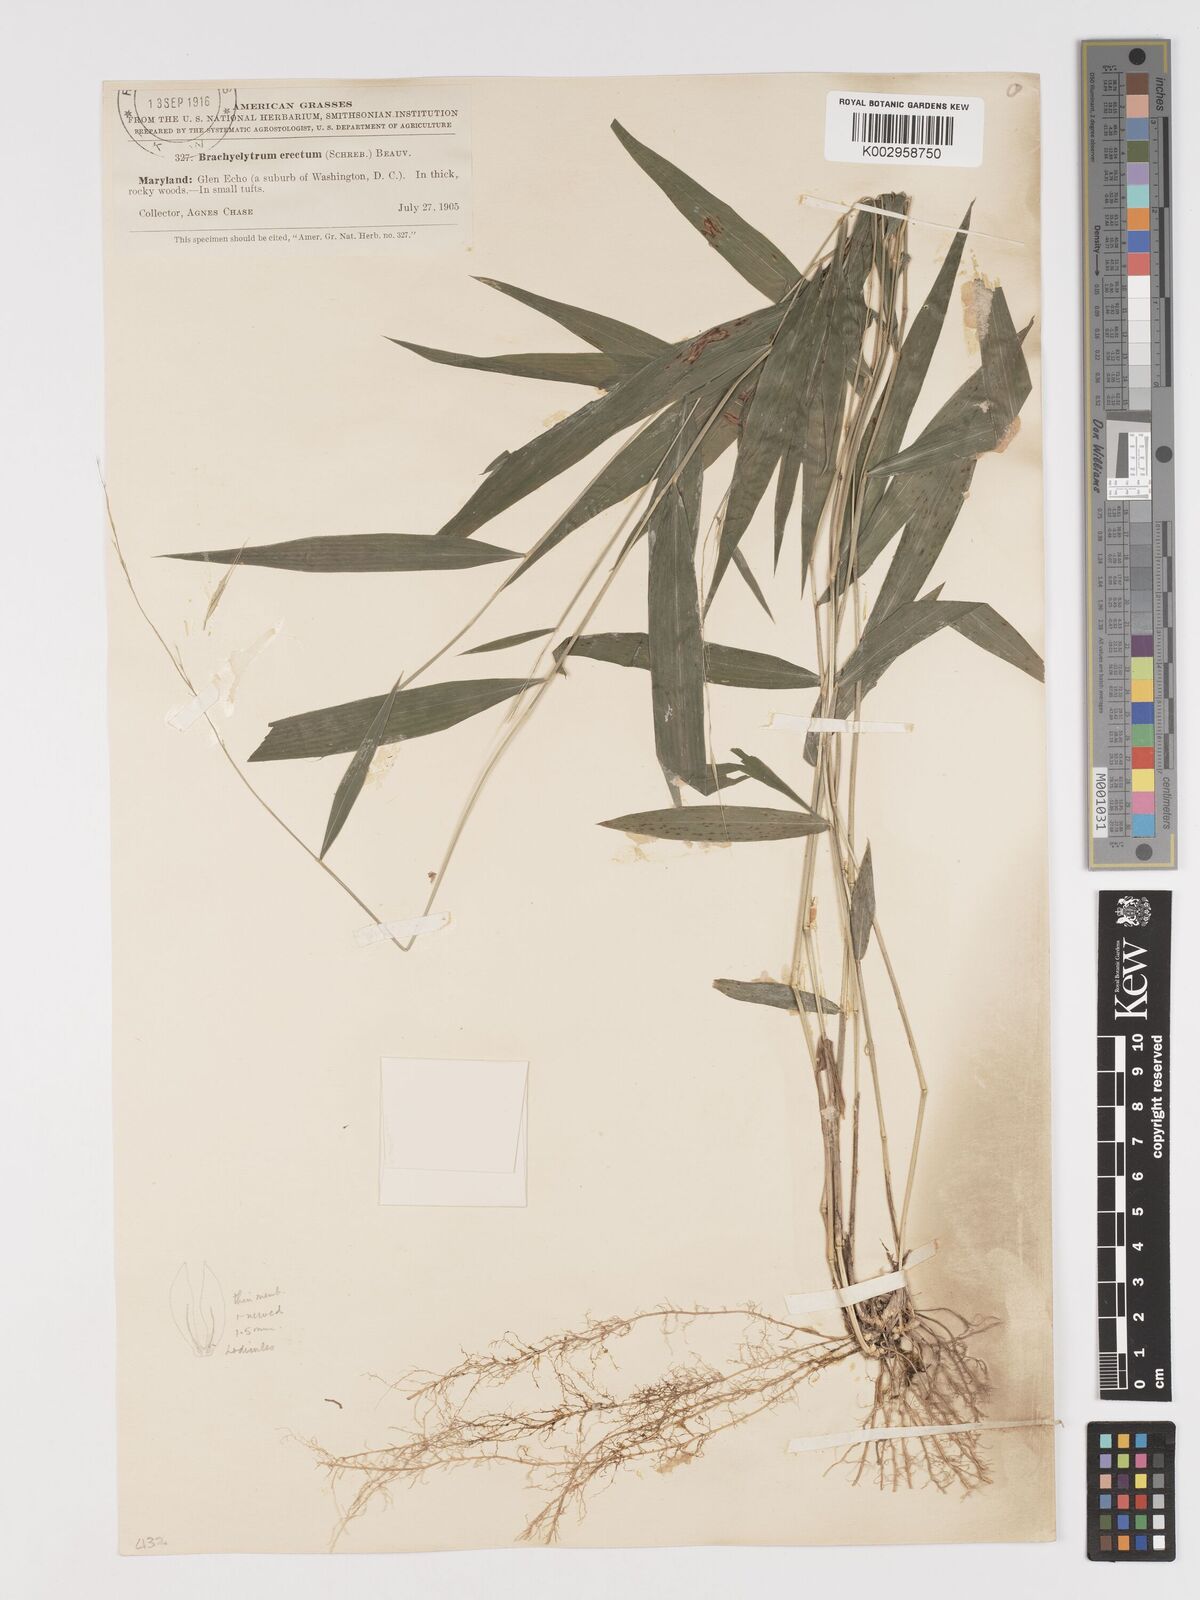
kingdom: Plantae
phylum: Tracheophyta
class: Liliopsida
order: Poales
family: Poaceae
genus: Brachyelytrum
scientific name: Brachyelytrum erectum
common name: Bearded shorthusk
